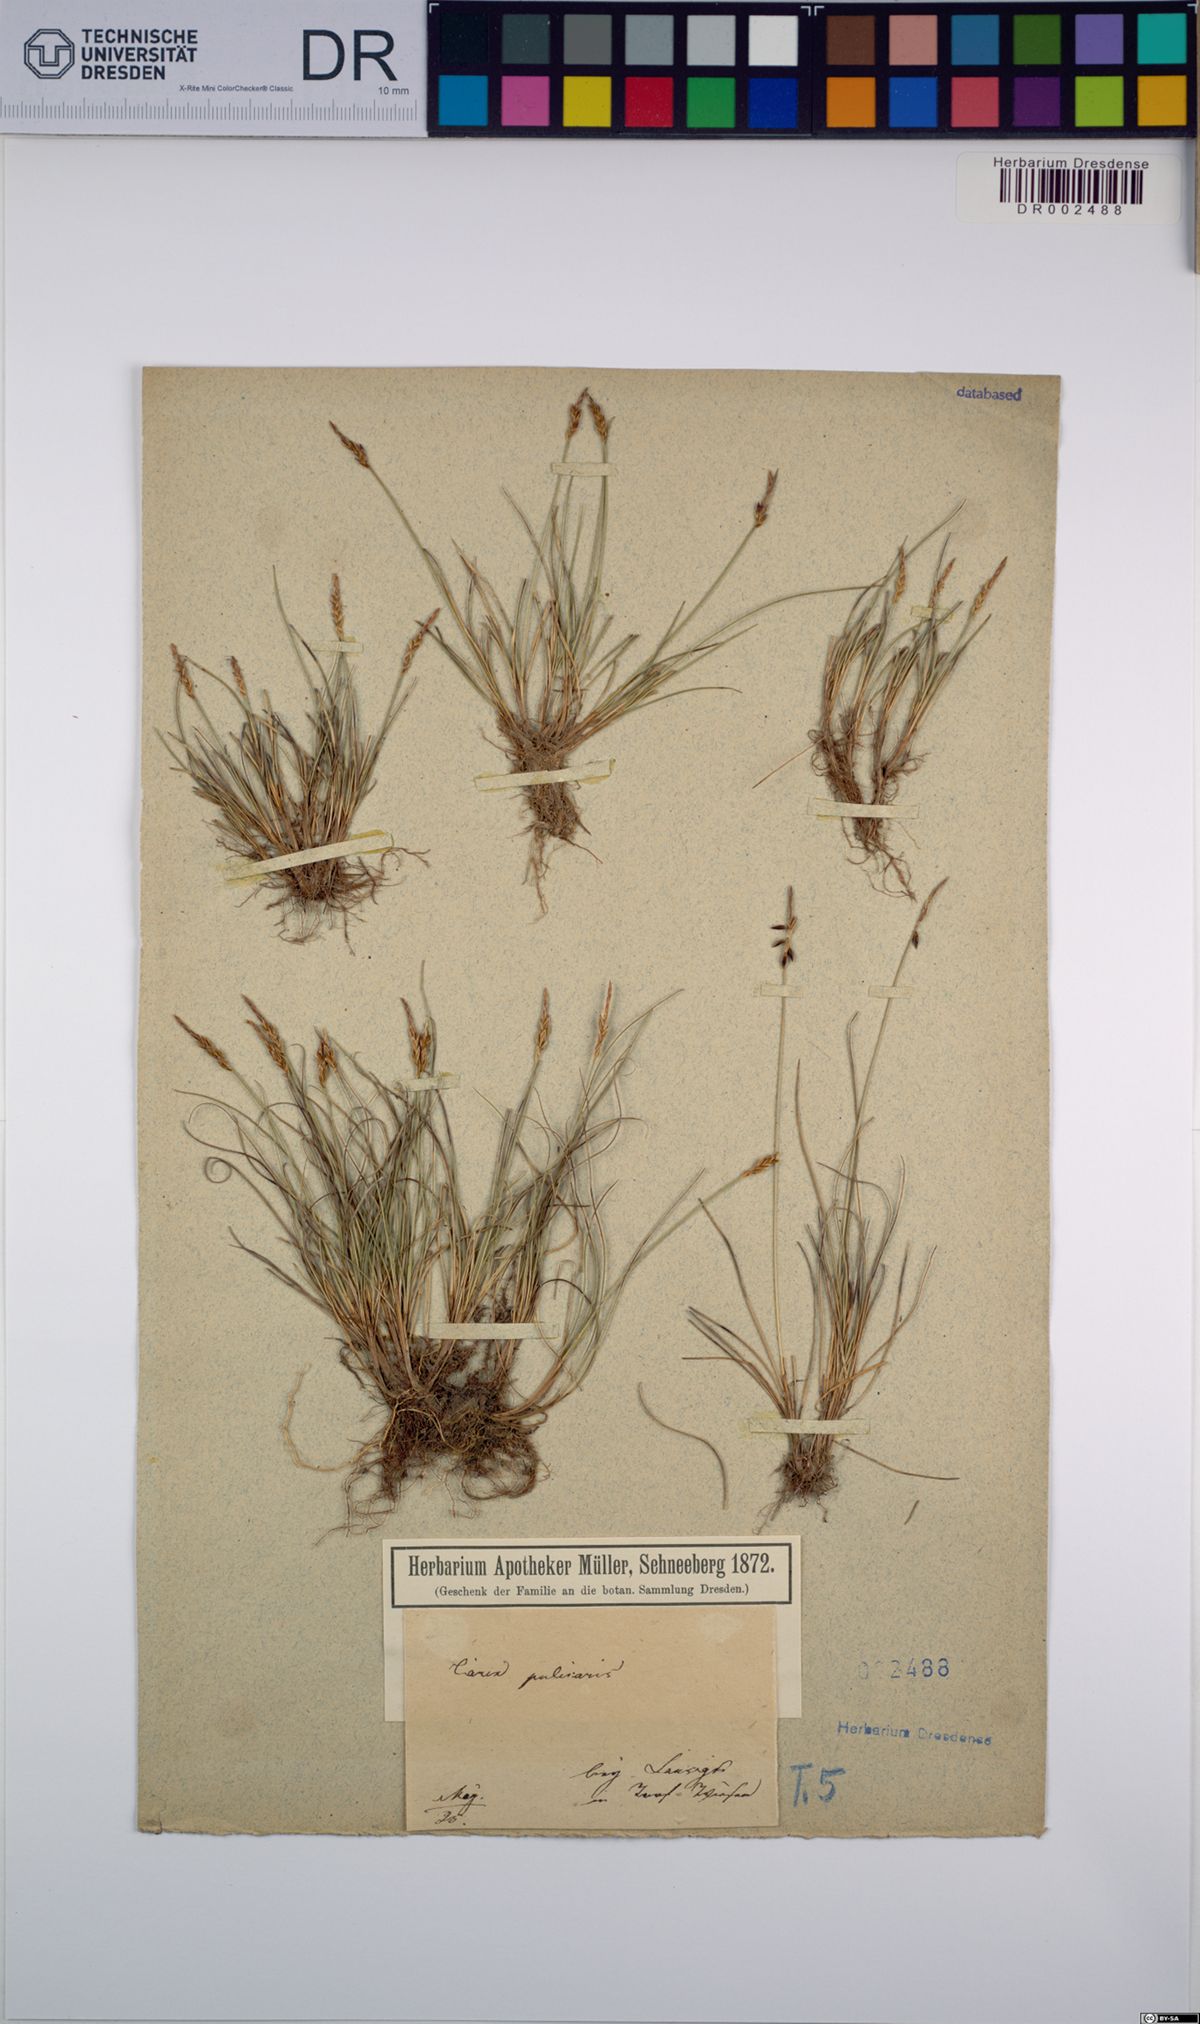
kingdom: Plantae
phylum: Tracheophyta
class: Liliopsida
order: Poales
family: Cyperaceae
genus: Carex
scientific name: Carex pulicaris
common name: Flea sedge
